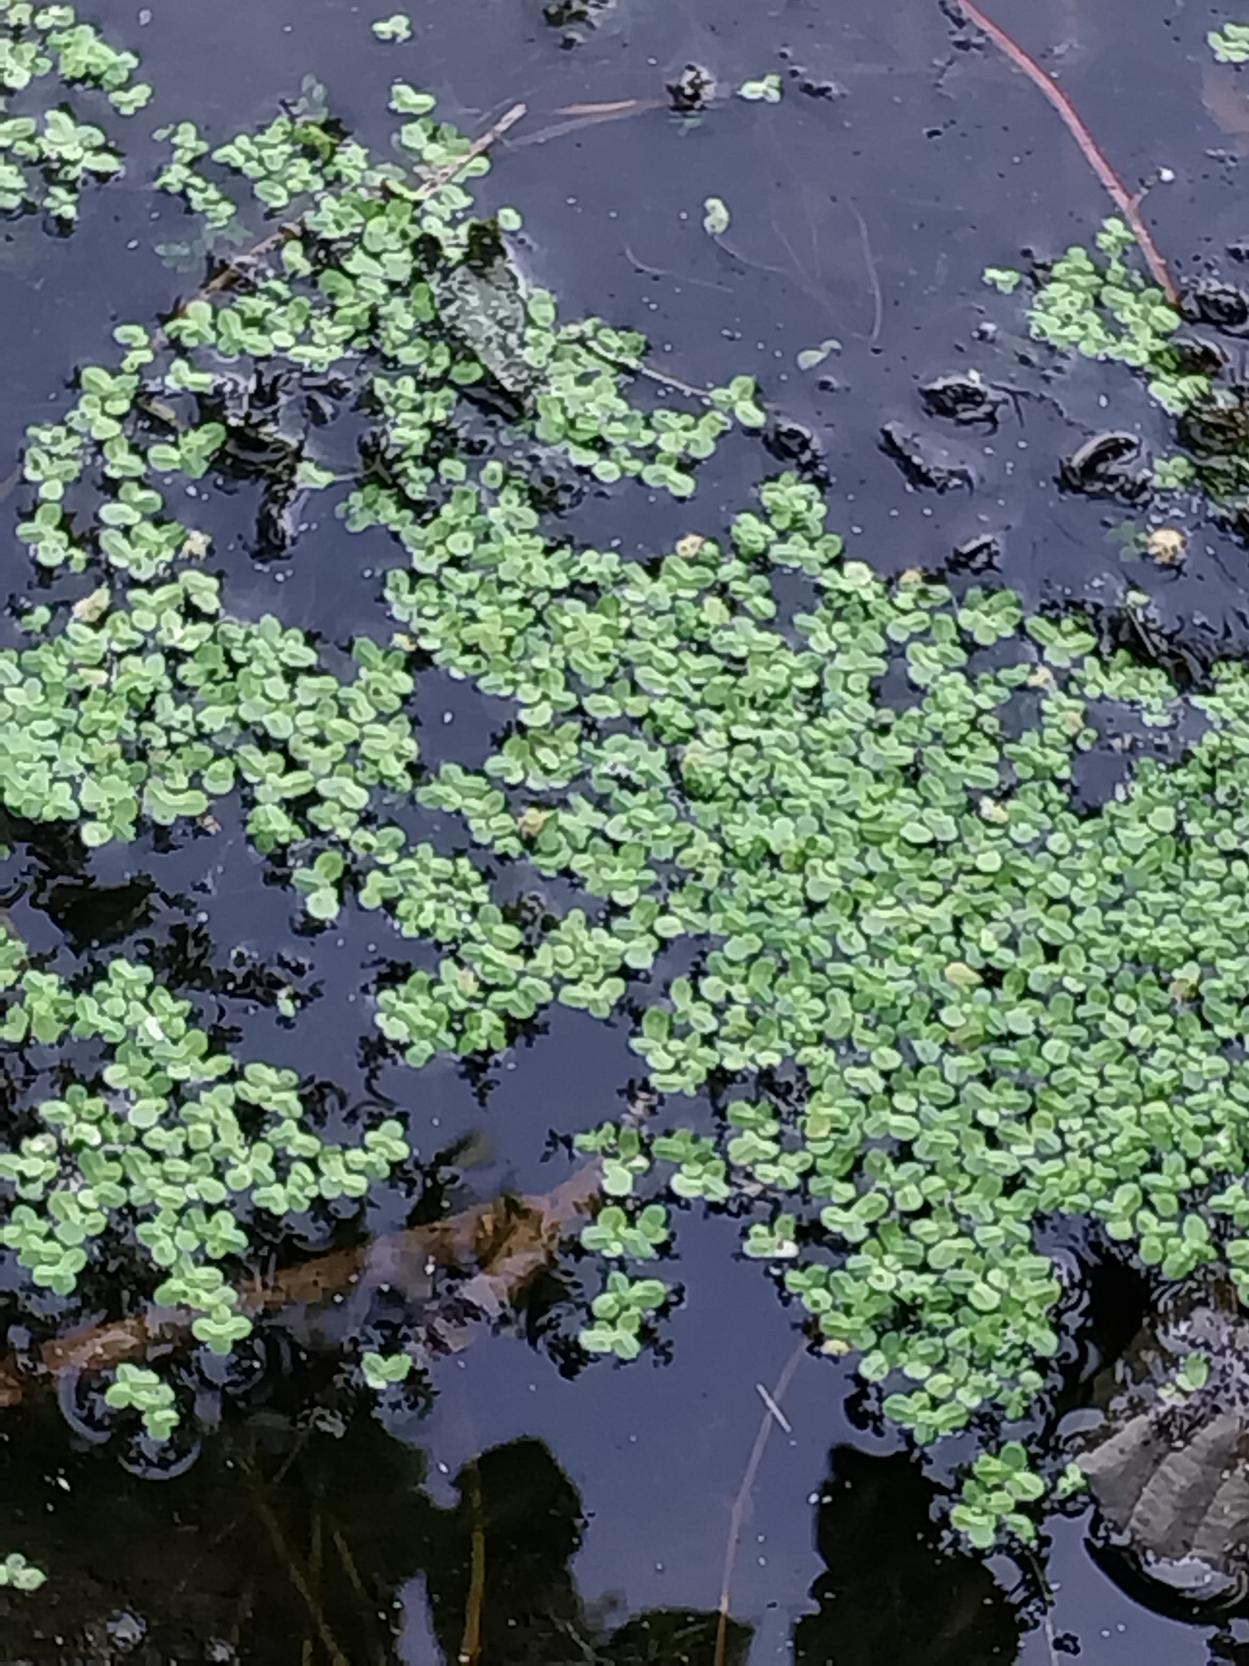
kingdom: Plantae
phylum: Tracheophyta
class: Liliopsida
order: Alismatales
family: Araceae
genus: Lemna
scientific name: Lemna minor
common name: Liden andemad
